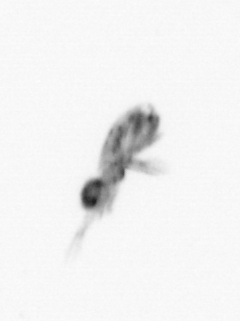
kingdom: Animalia
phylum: Arthropoda
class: Copepoda
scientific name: Copepoda
